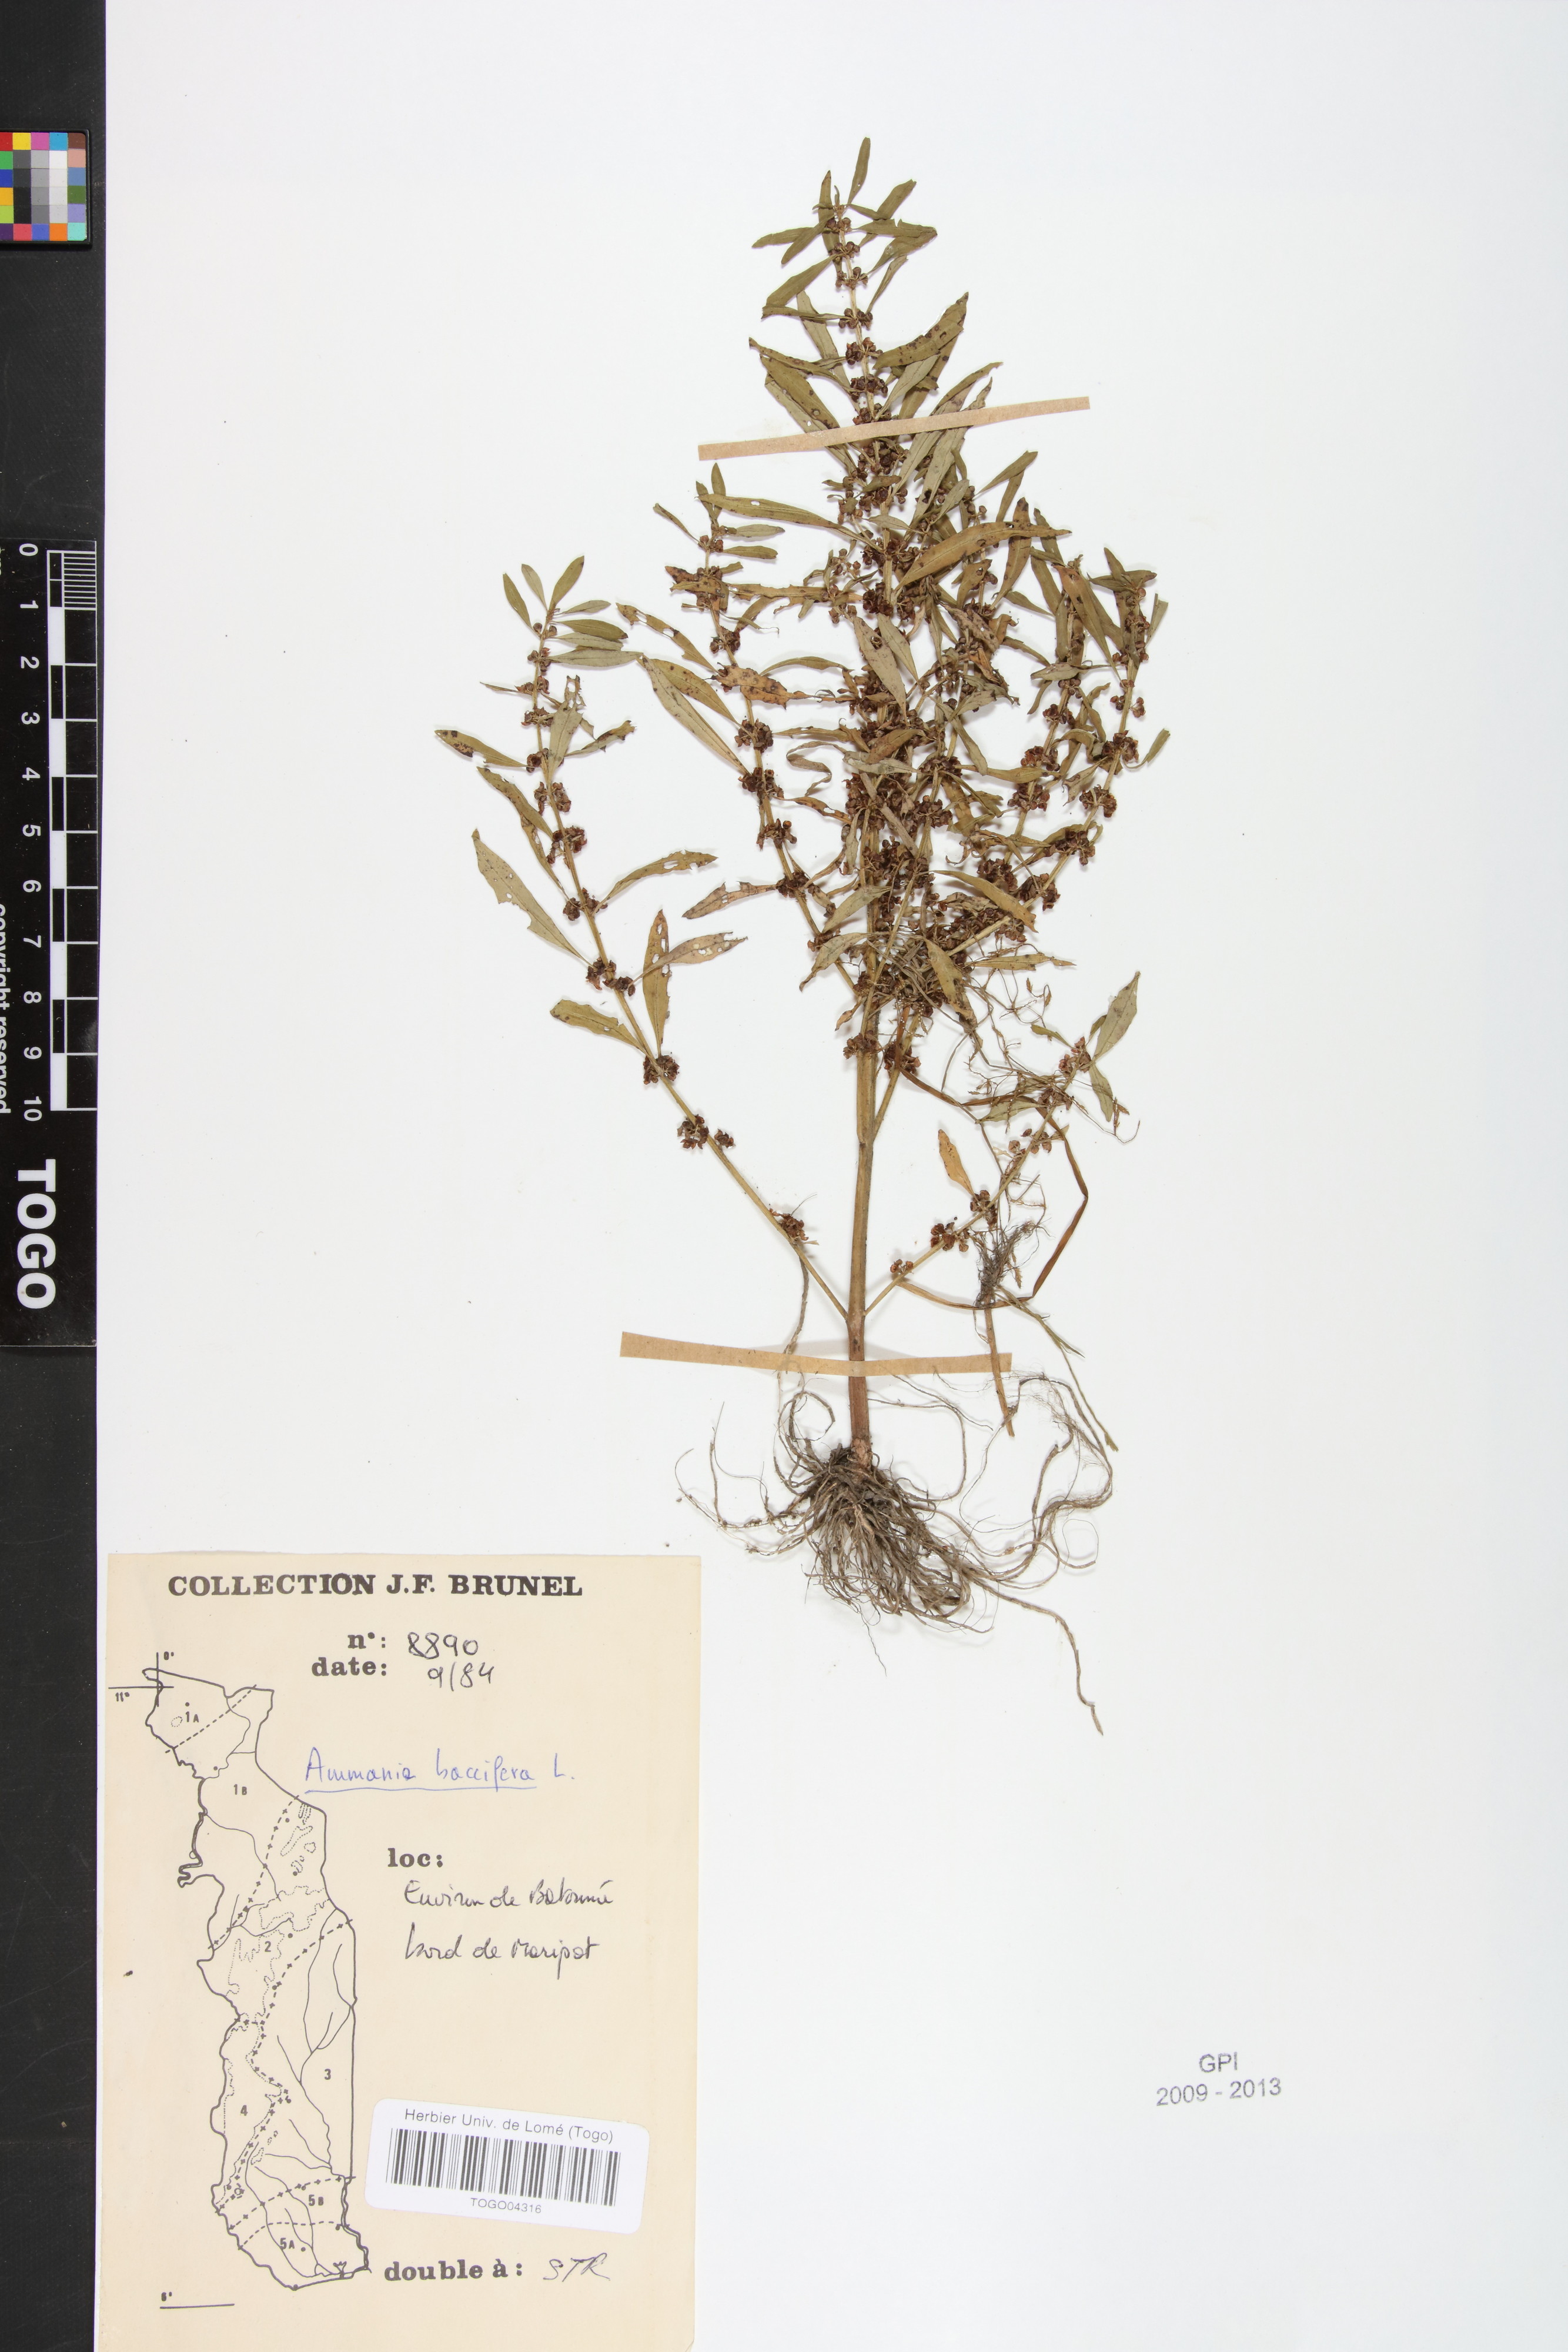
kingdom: Plantae
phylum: Tracheophyta
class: Magnoliopsida
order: Myrtales
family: Lythraceae
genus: Ammannia
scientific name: Ammannia baccifera
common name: Blistering ammania
